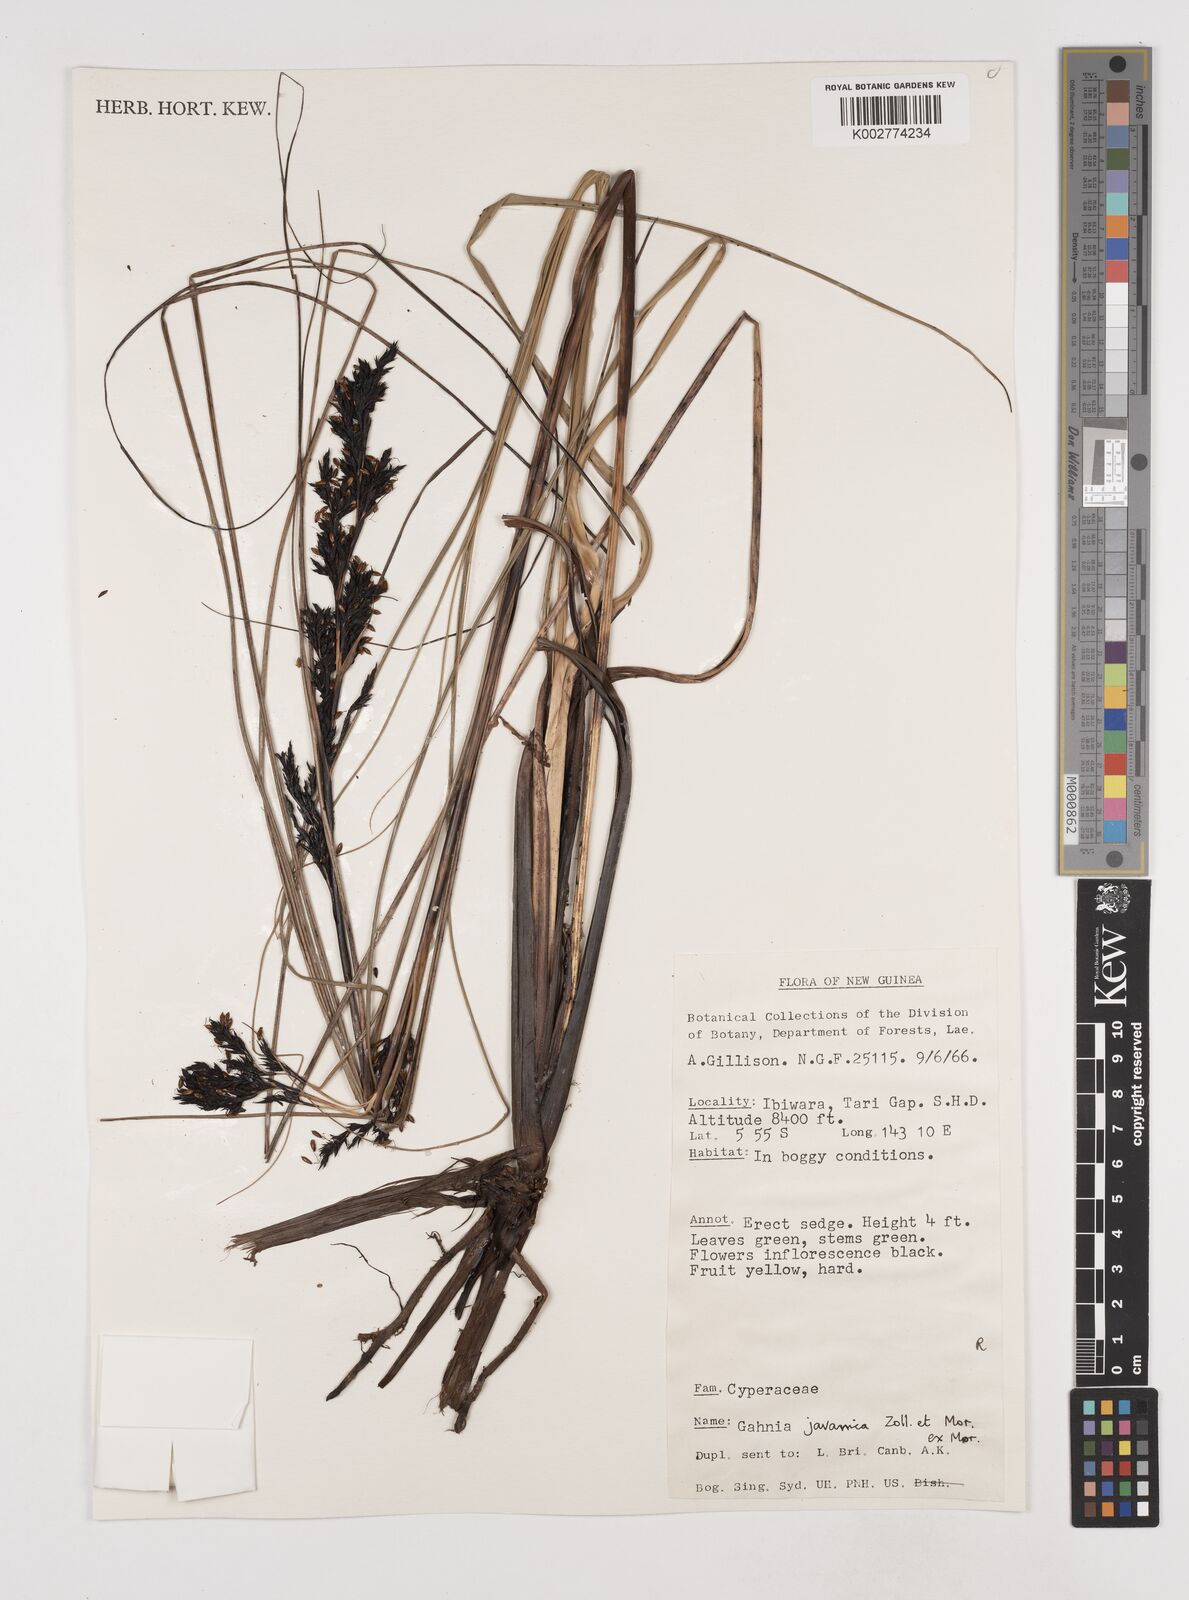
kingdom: Plantae
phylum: Tracheophyta
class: Liliopsida
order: Poales
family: Cyperaceae
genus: Gahnia
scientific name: Gahnia javanica
